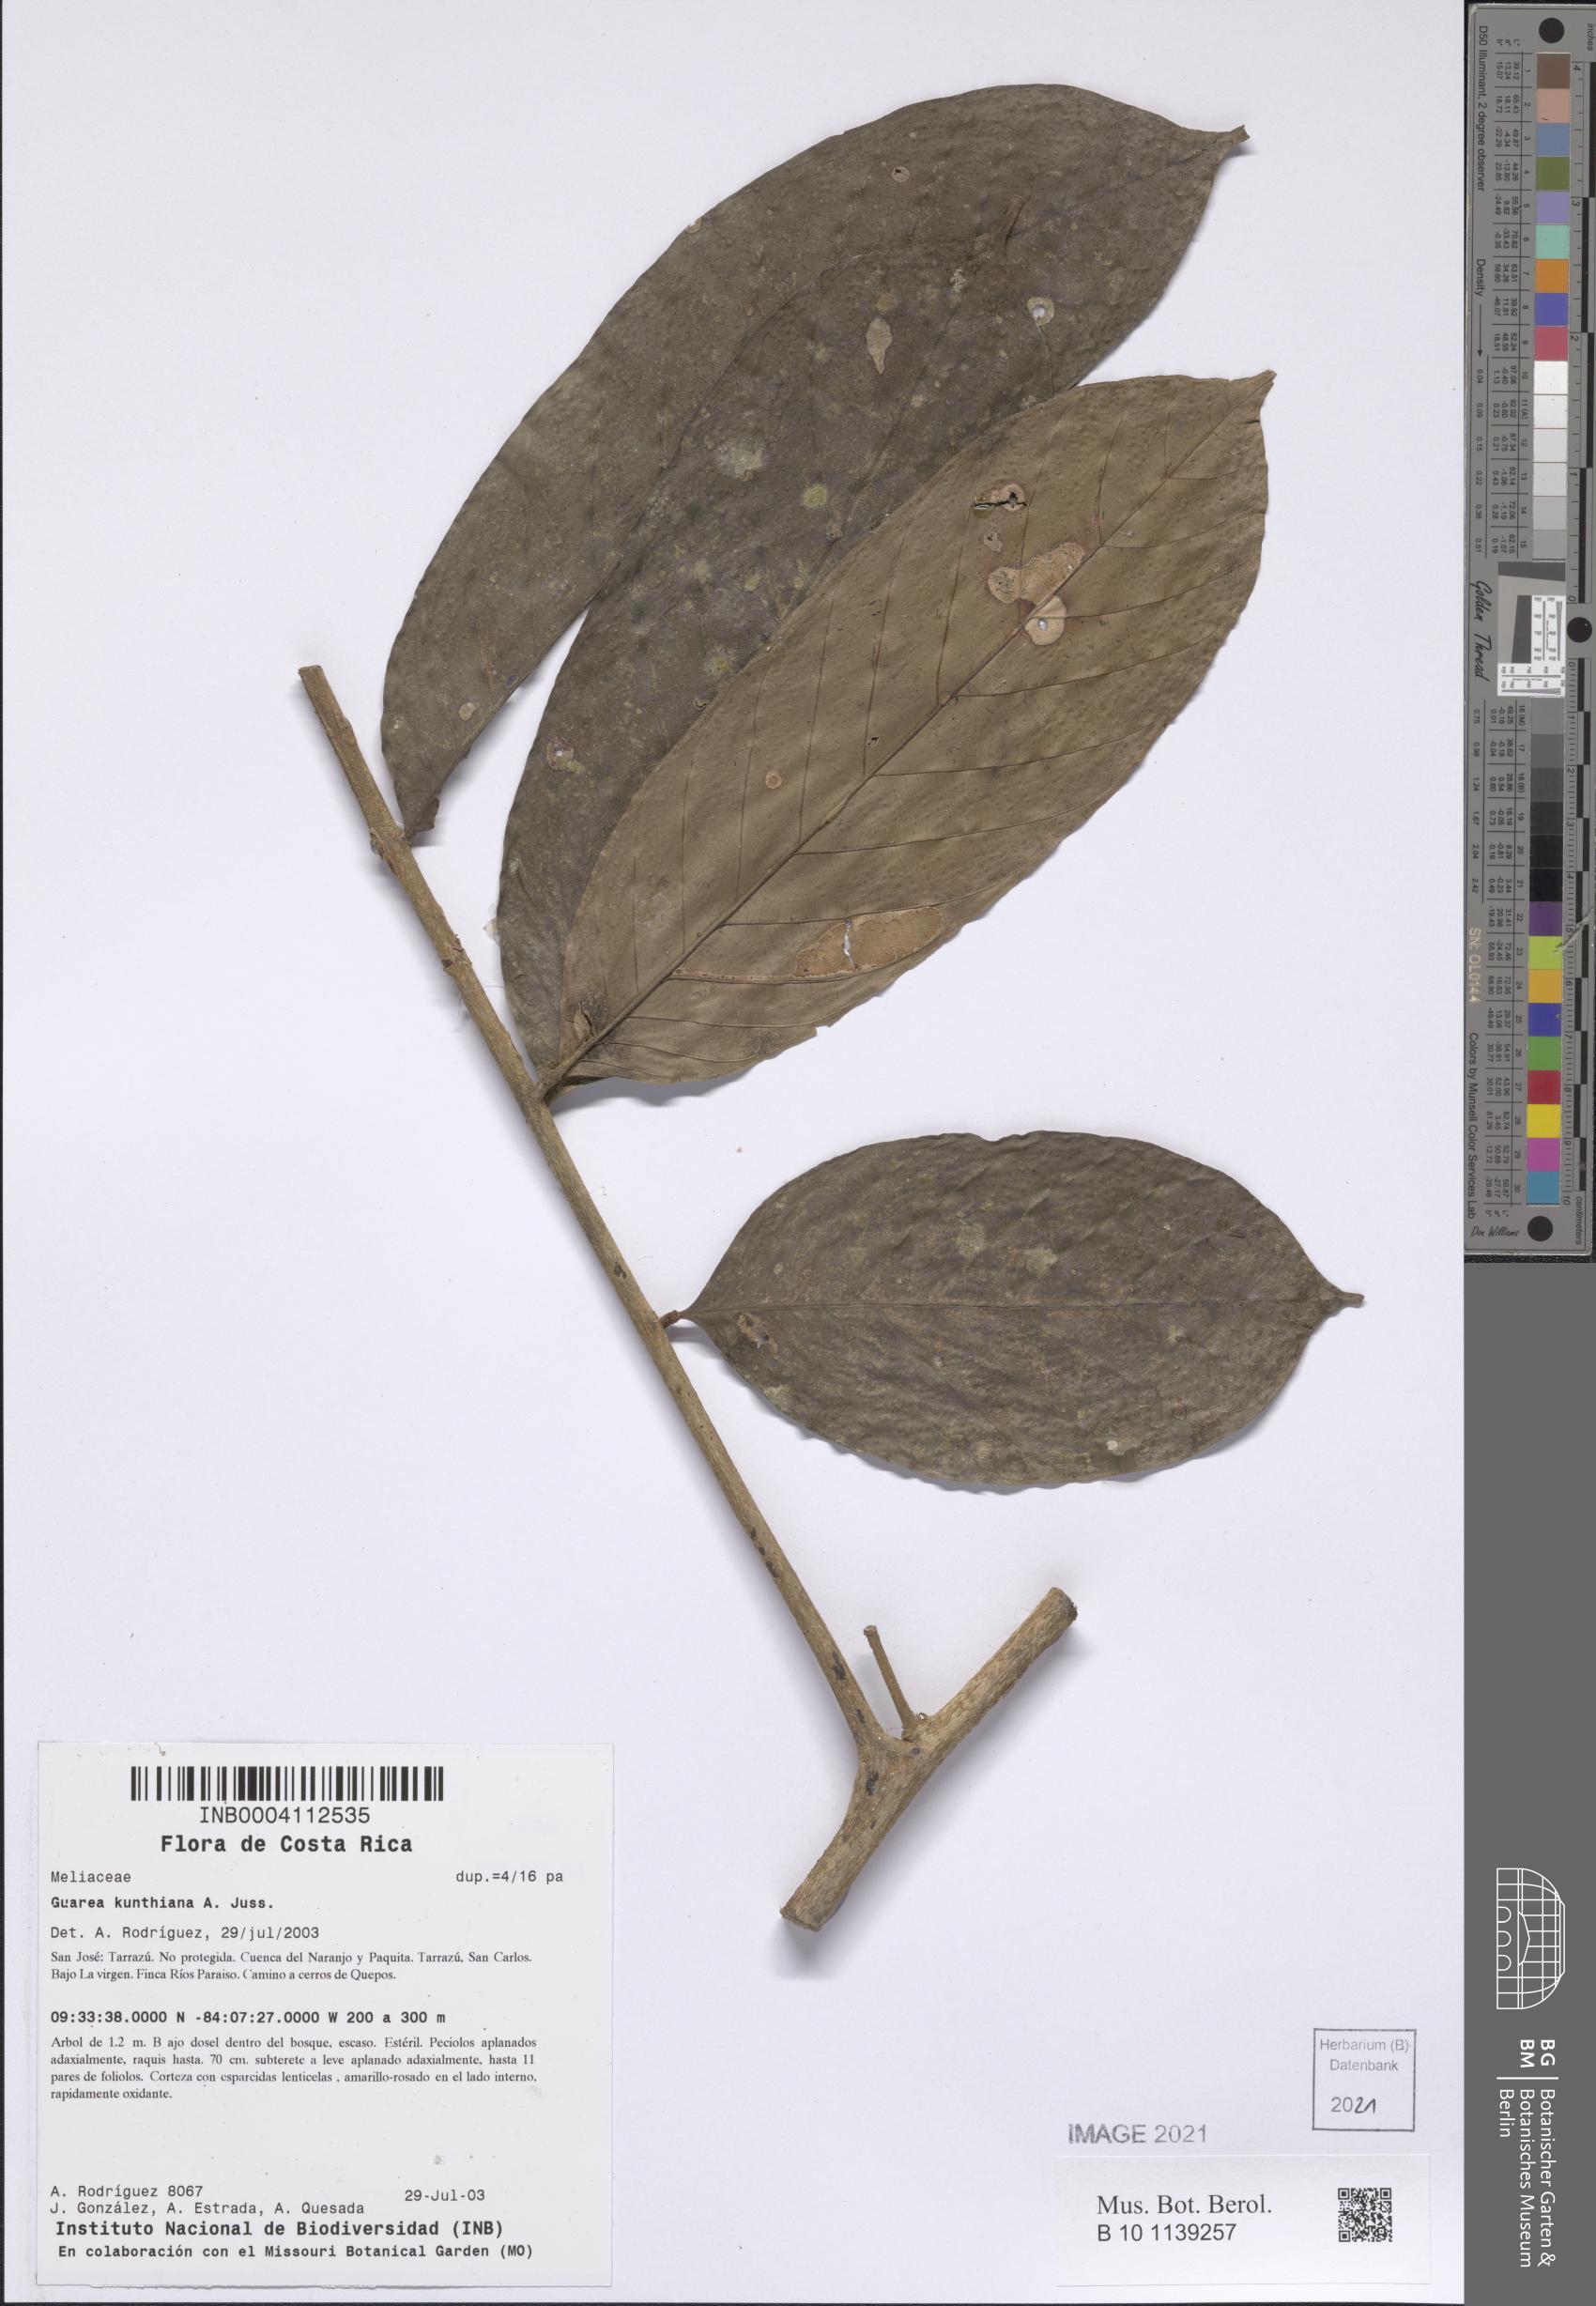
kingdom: Plantae
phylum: Tracheophyta
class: Magnoliopsida
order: Sapindales
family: Meliaceae
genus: Guarea
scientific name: Guarea kunthiana
